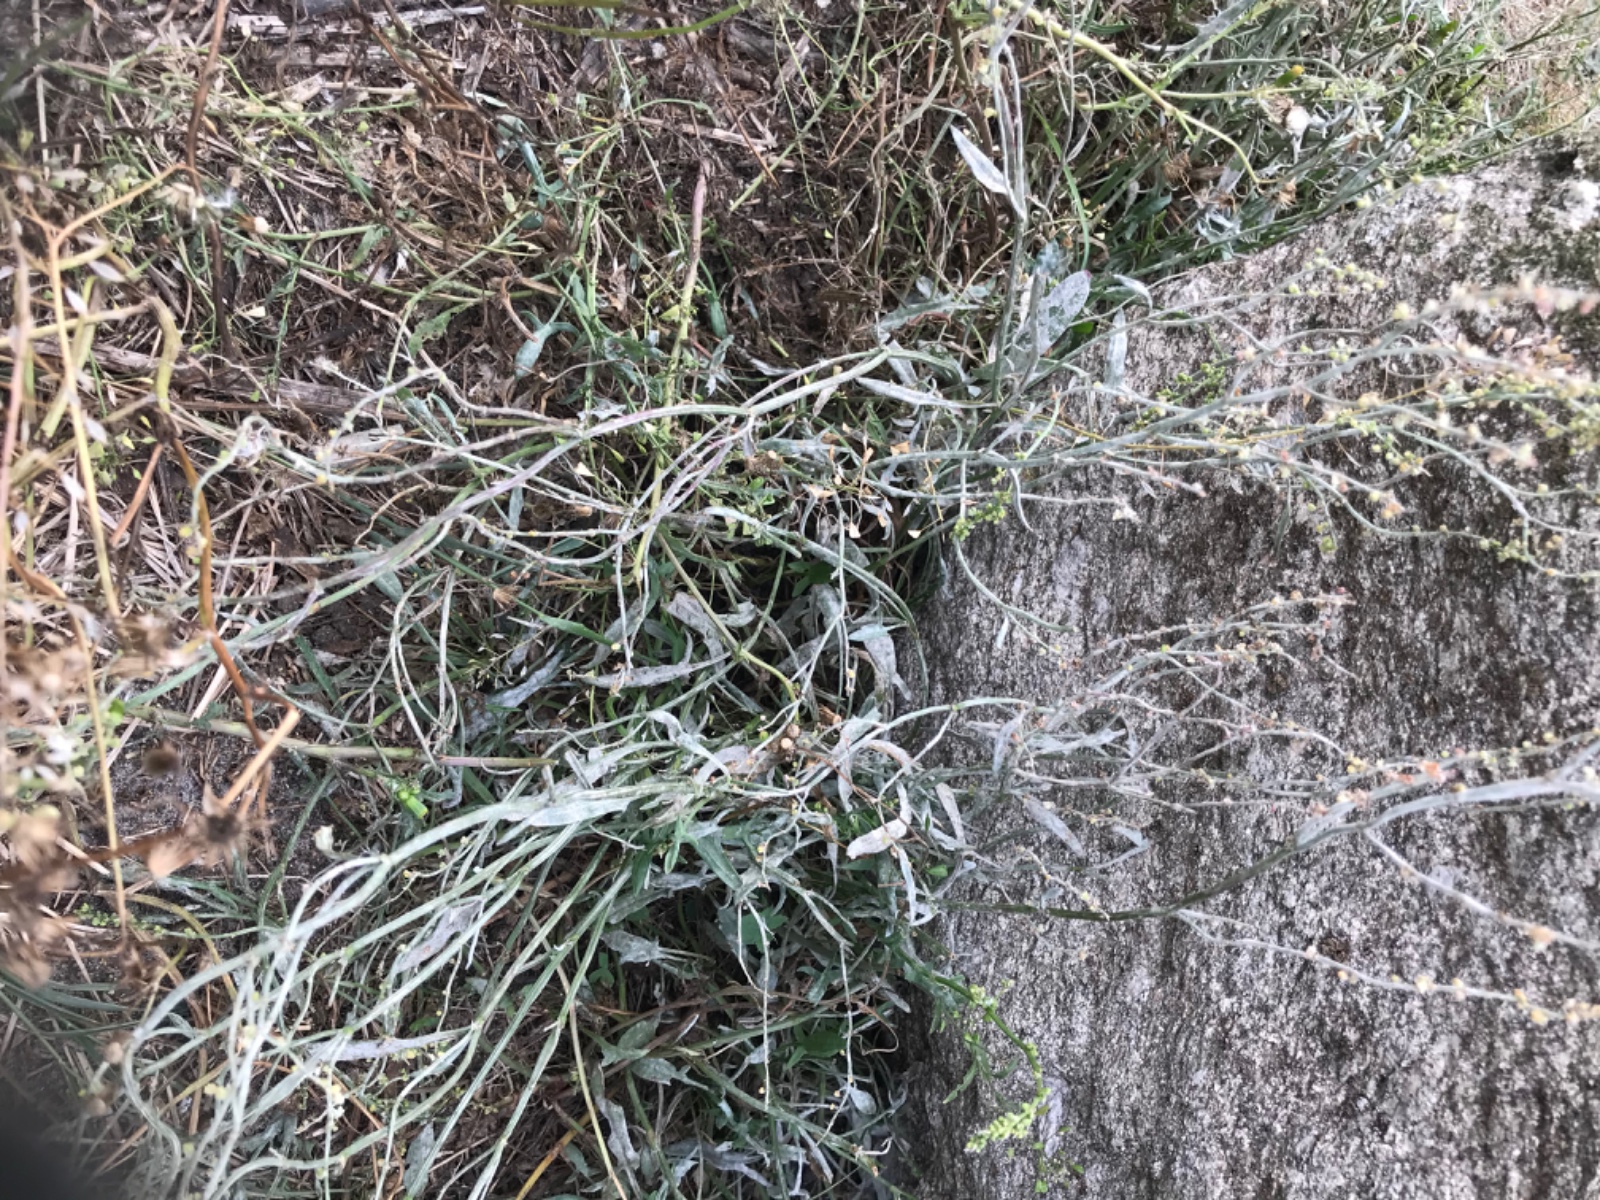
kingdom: Fungi
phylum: Ascomycota
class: Leotiomycetes
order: Helotiales
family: Erysiphaceae
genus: Erysiphe
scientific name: Erysiphe polygoni
